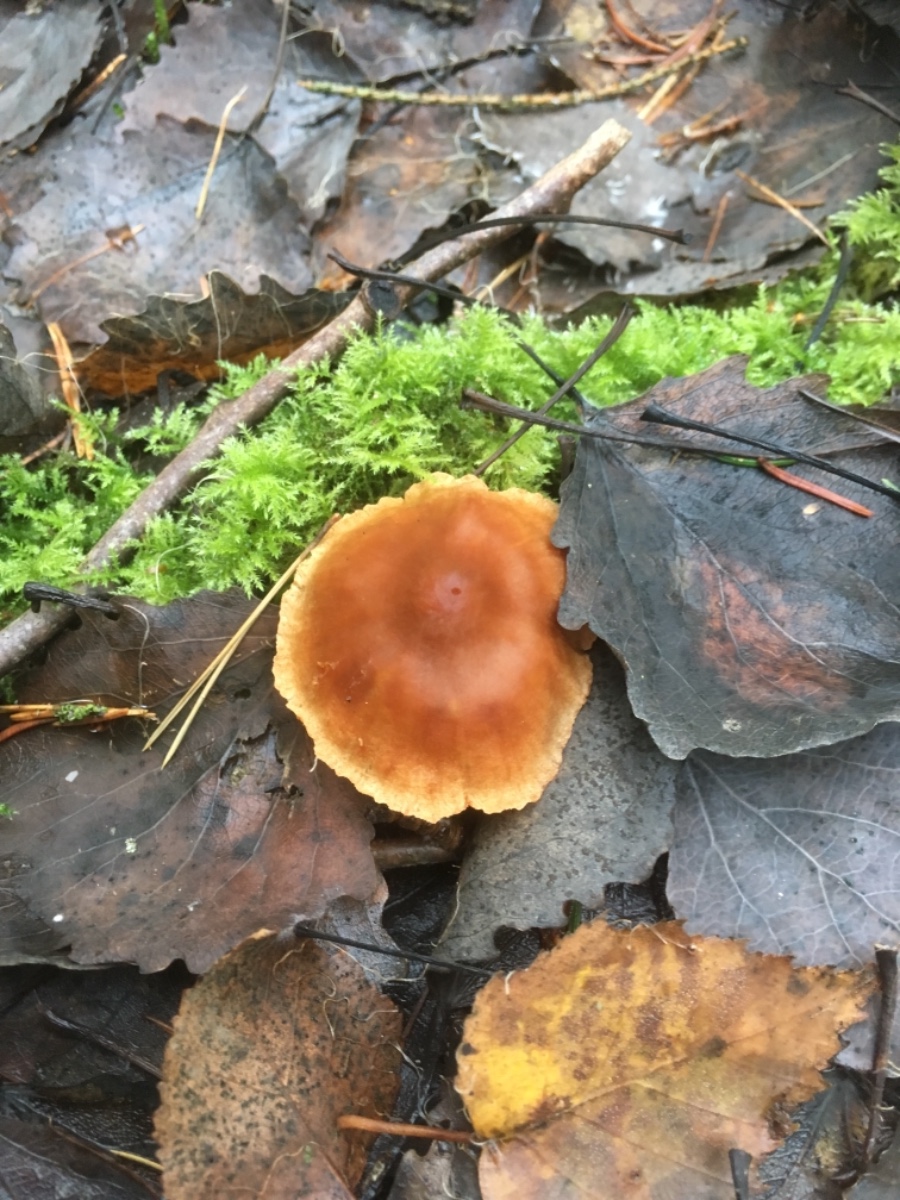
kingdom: Fungi
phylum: Basidiomycota
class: Agaricomycetes
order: Agaricales
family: Cortinariaceae
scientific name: Cortinariaceae
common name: slørhatfamilien
